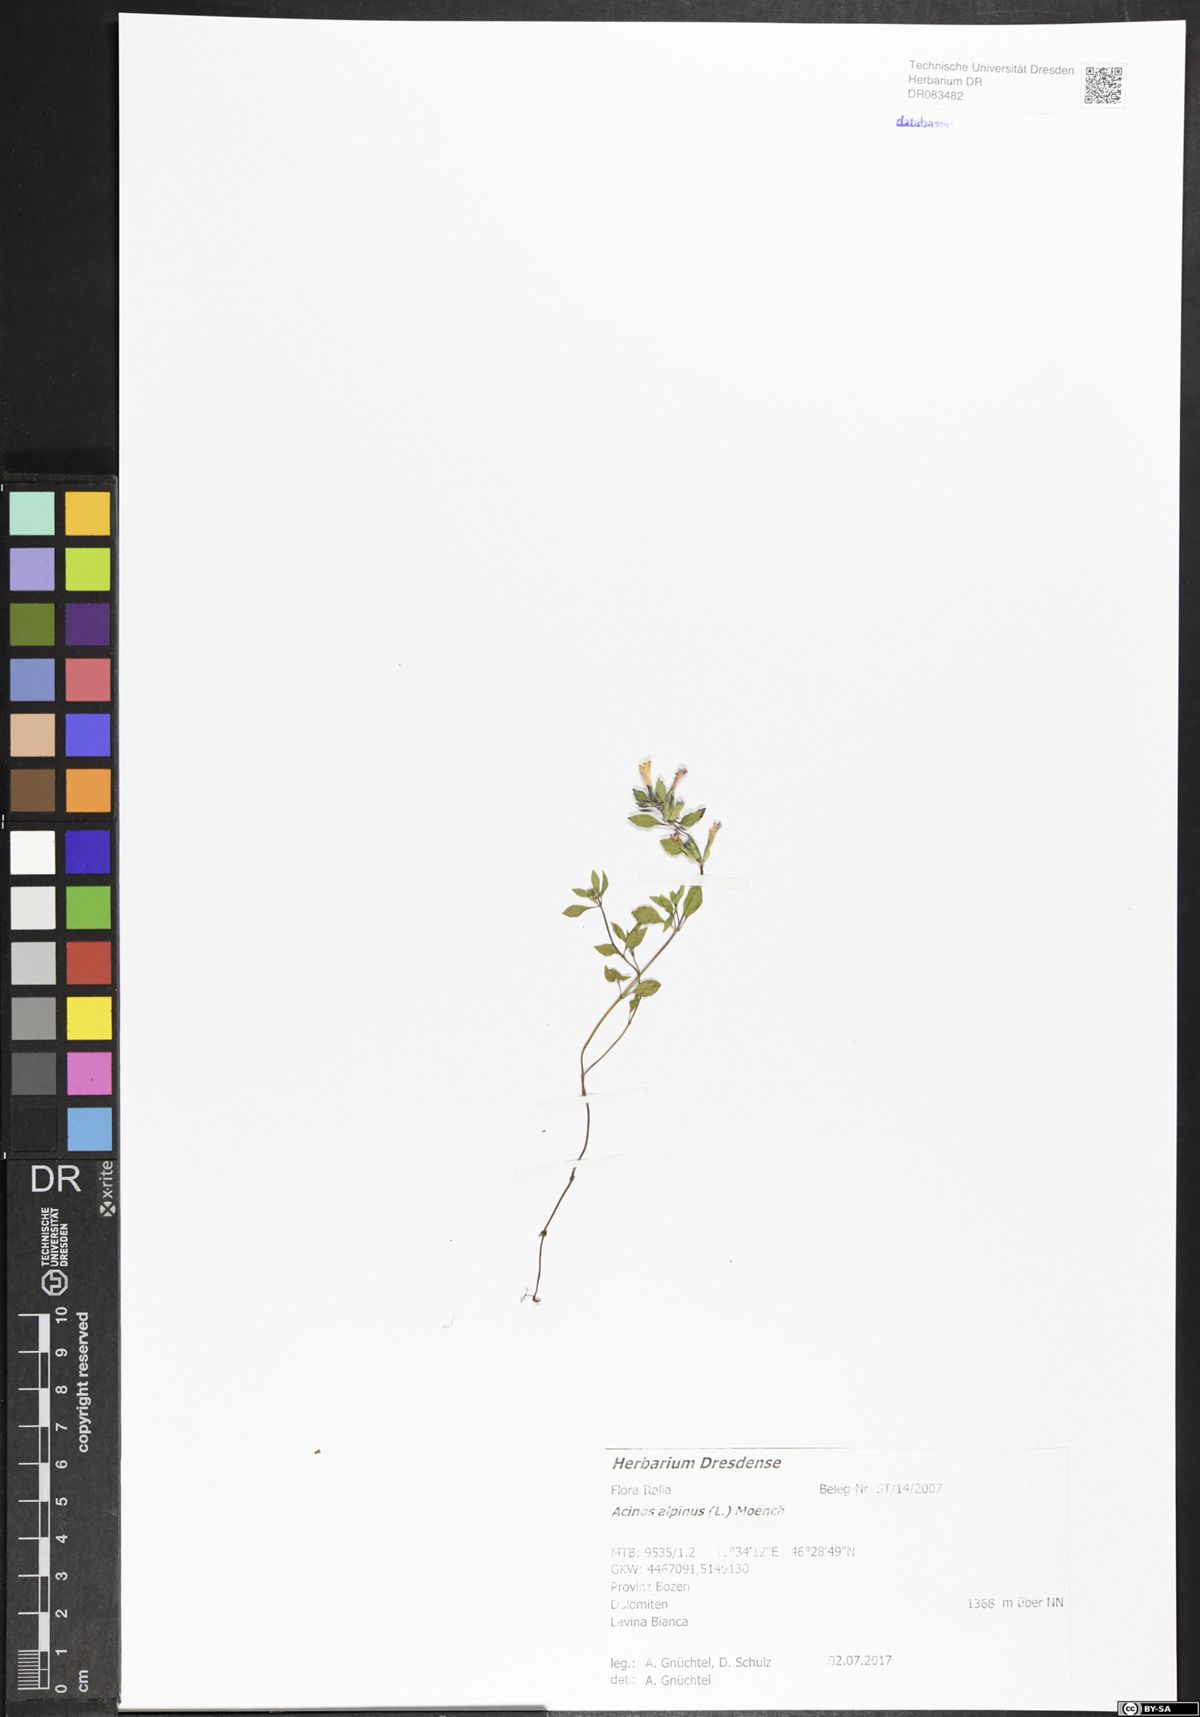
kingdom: Plantae
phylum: Tracheophyta
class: Magnoliopsida
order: Lamiales
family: Lamiaceae
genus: Clinopodium
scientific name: Clinopodium alpinum
